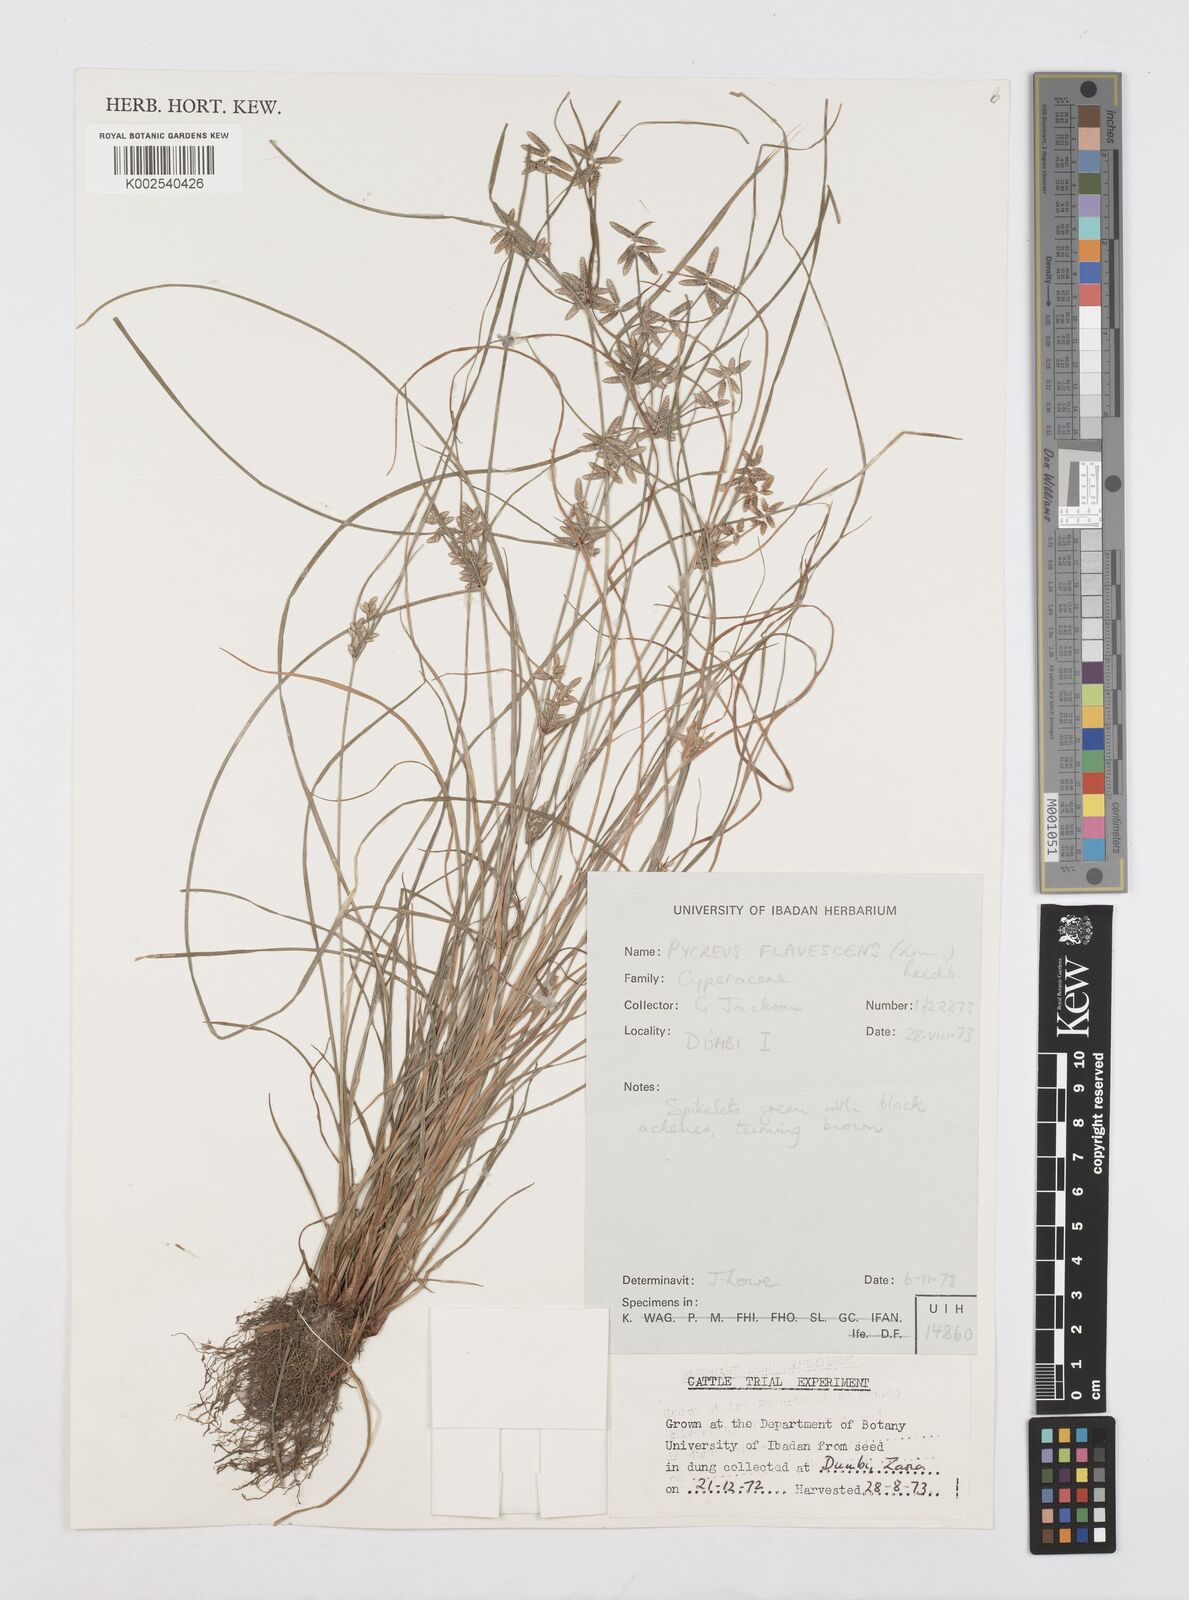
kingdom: Plantae
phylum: Tracheophyta
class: Liliopsida
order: Poales
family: Cyperaceae
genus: Cyperus
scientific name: Cyperus flavescens
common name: Yellow galingale
